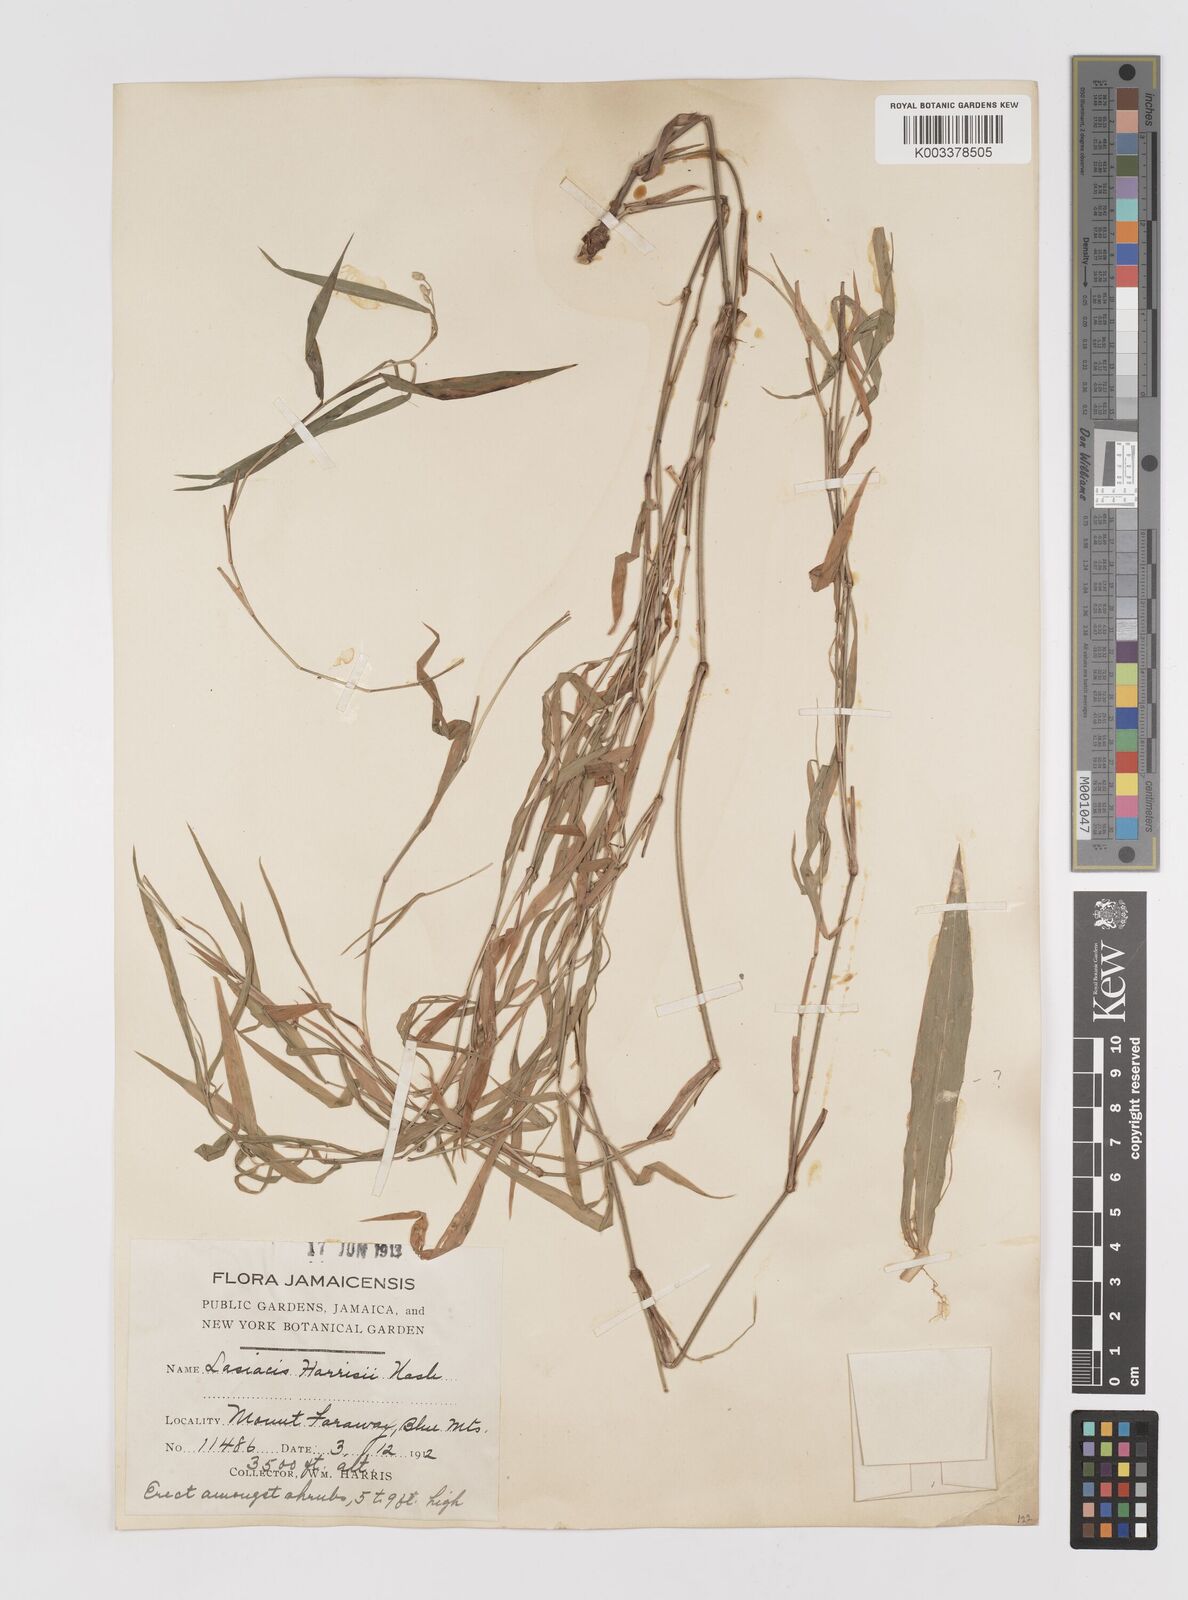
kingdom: Plantae
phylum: Tracheophyta
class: Liliopsida
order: Poales
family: Poaceae
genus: Lasiacis
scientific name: Lasiacis divaricata
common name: Smallcane
